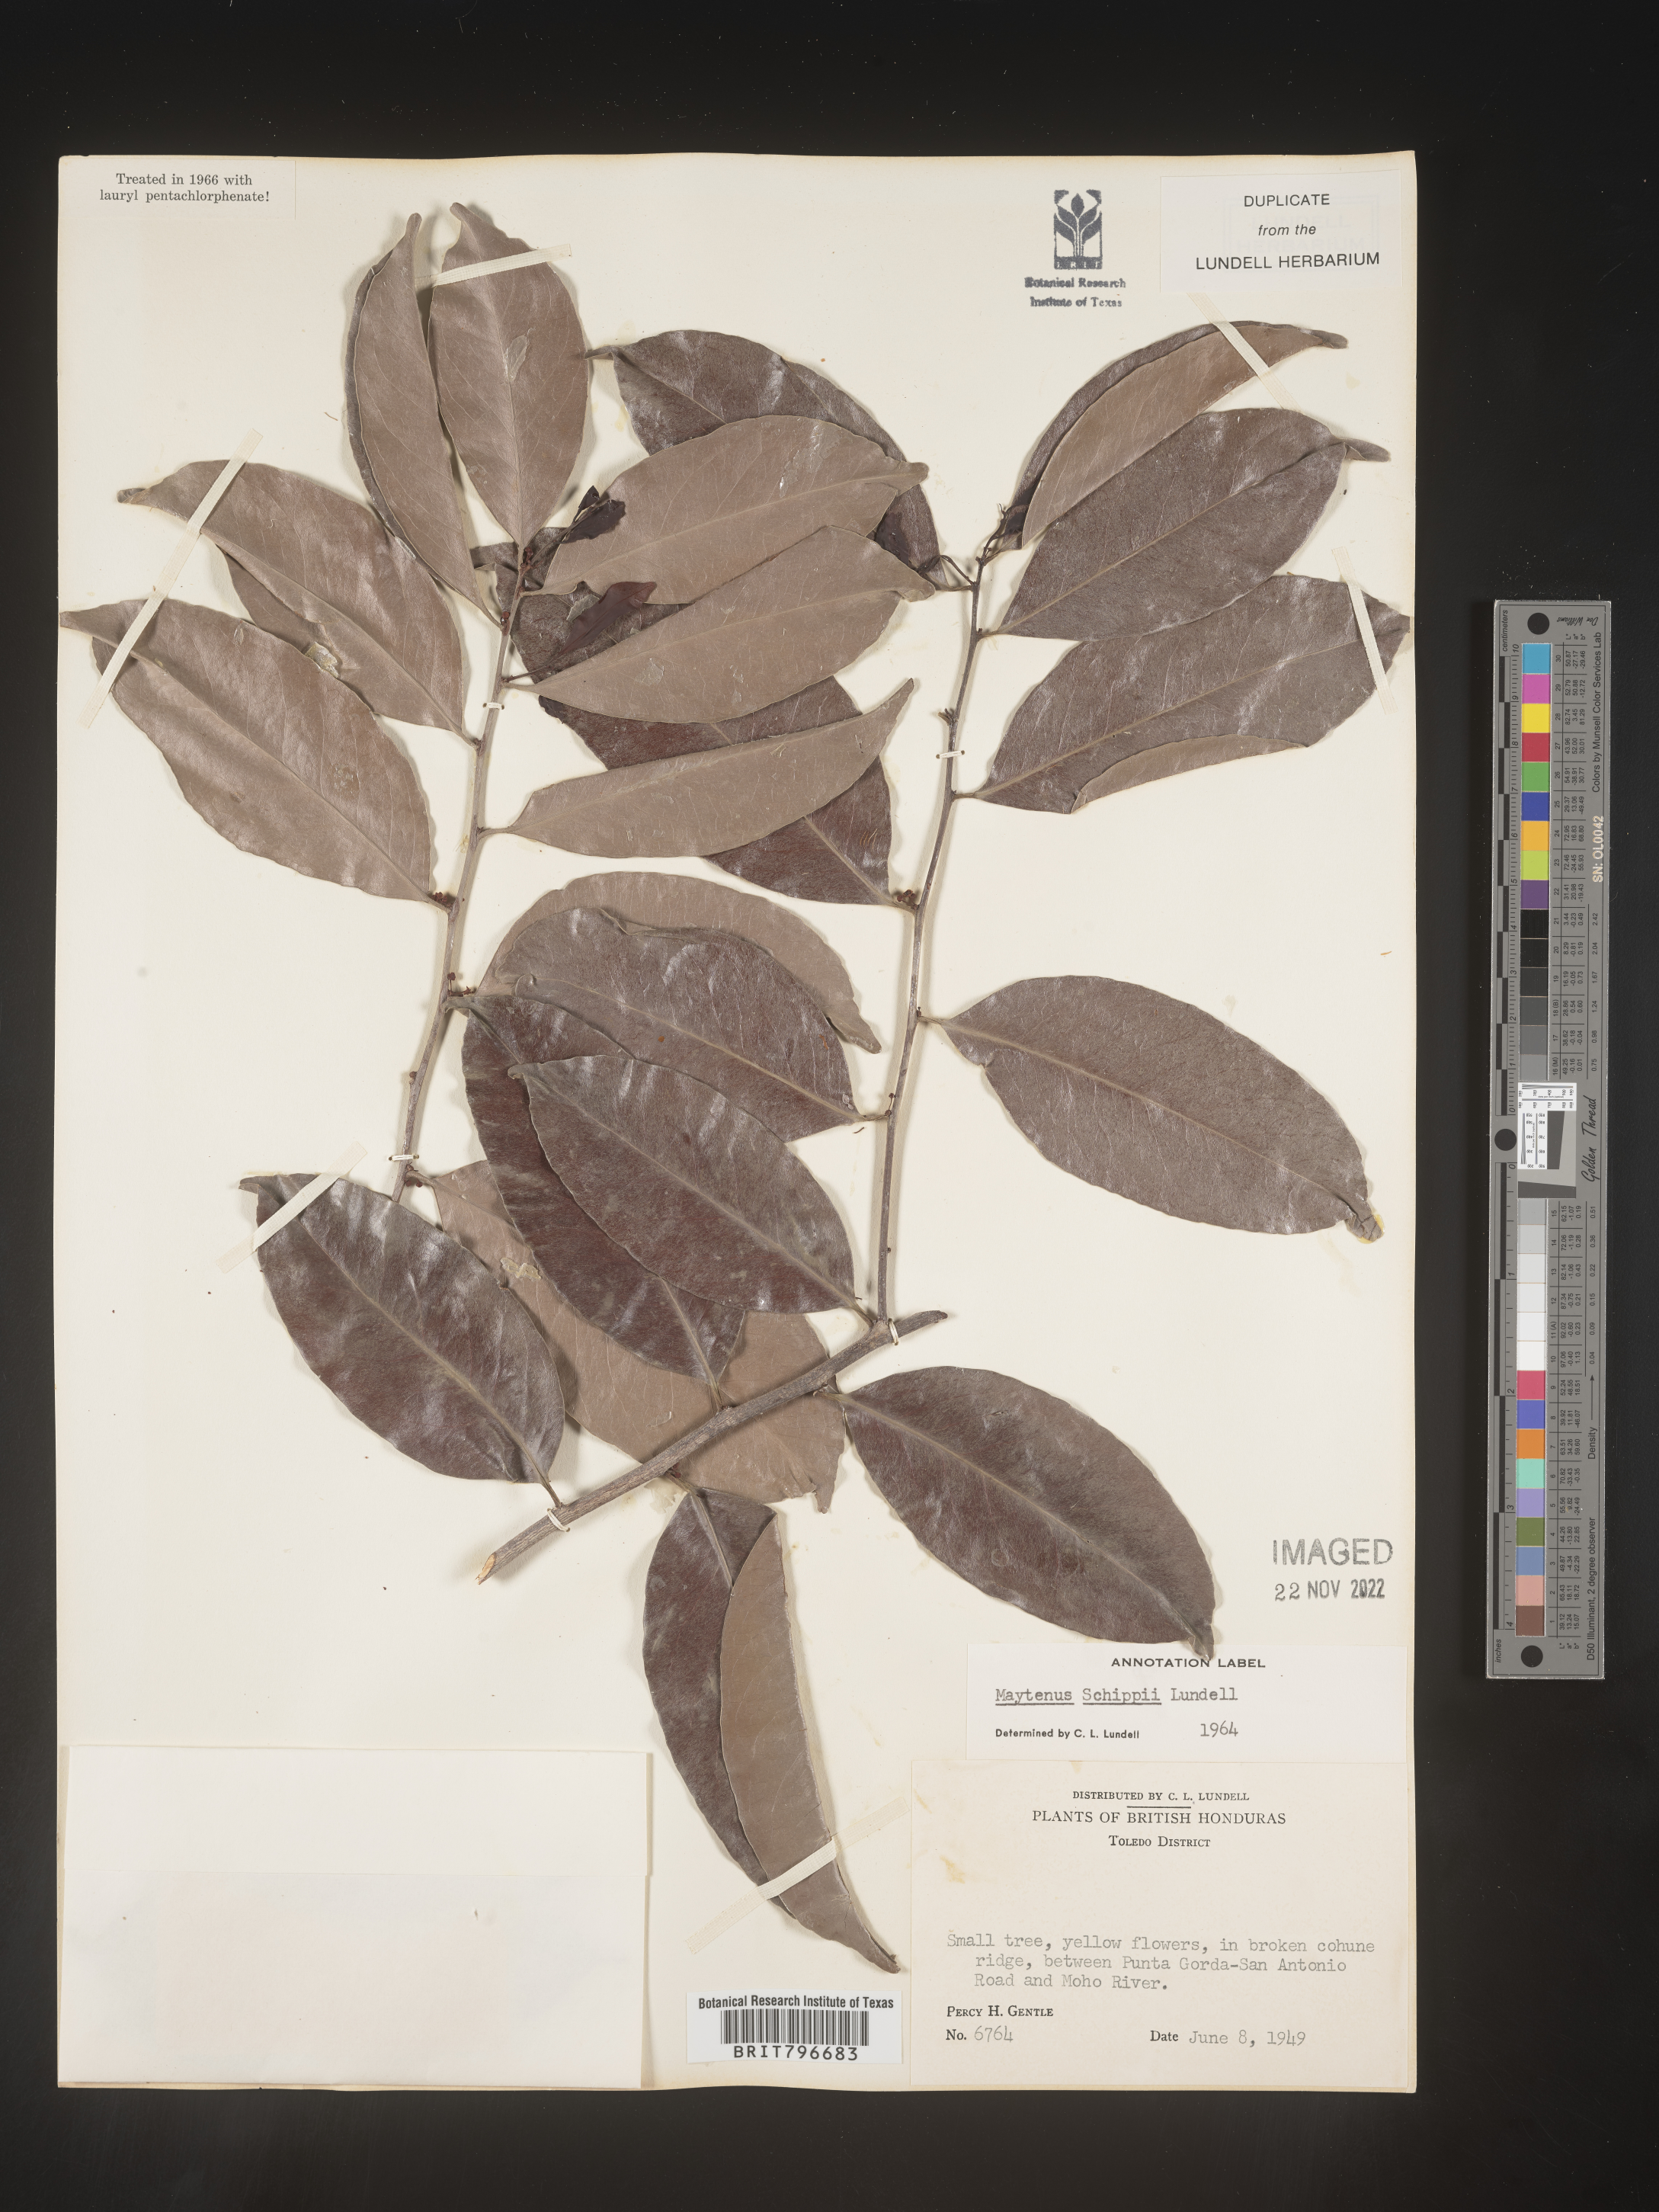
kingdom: Plantae
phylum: Tracheophyta
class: Magnoliopsida
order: Celastrales
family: Celastraceae
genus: Monteverdia
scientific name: Monteverdia schippii
